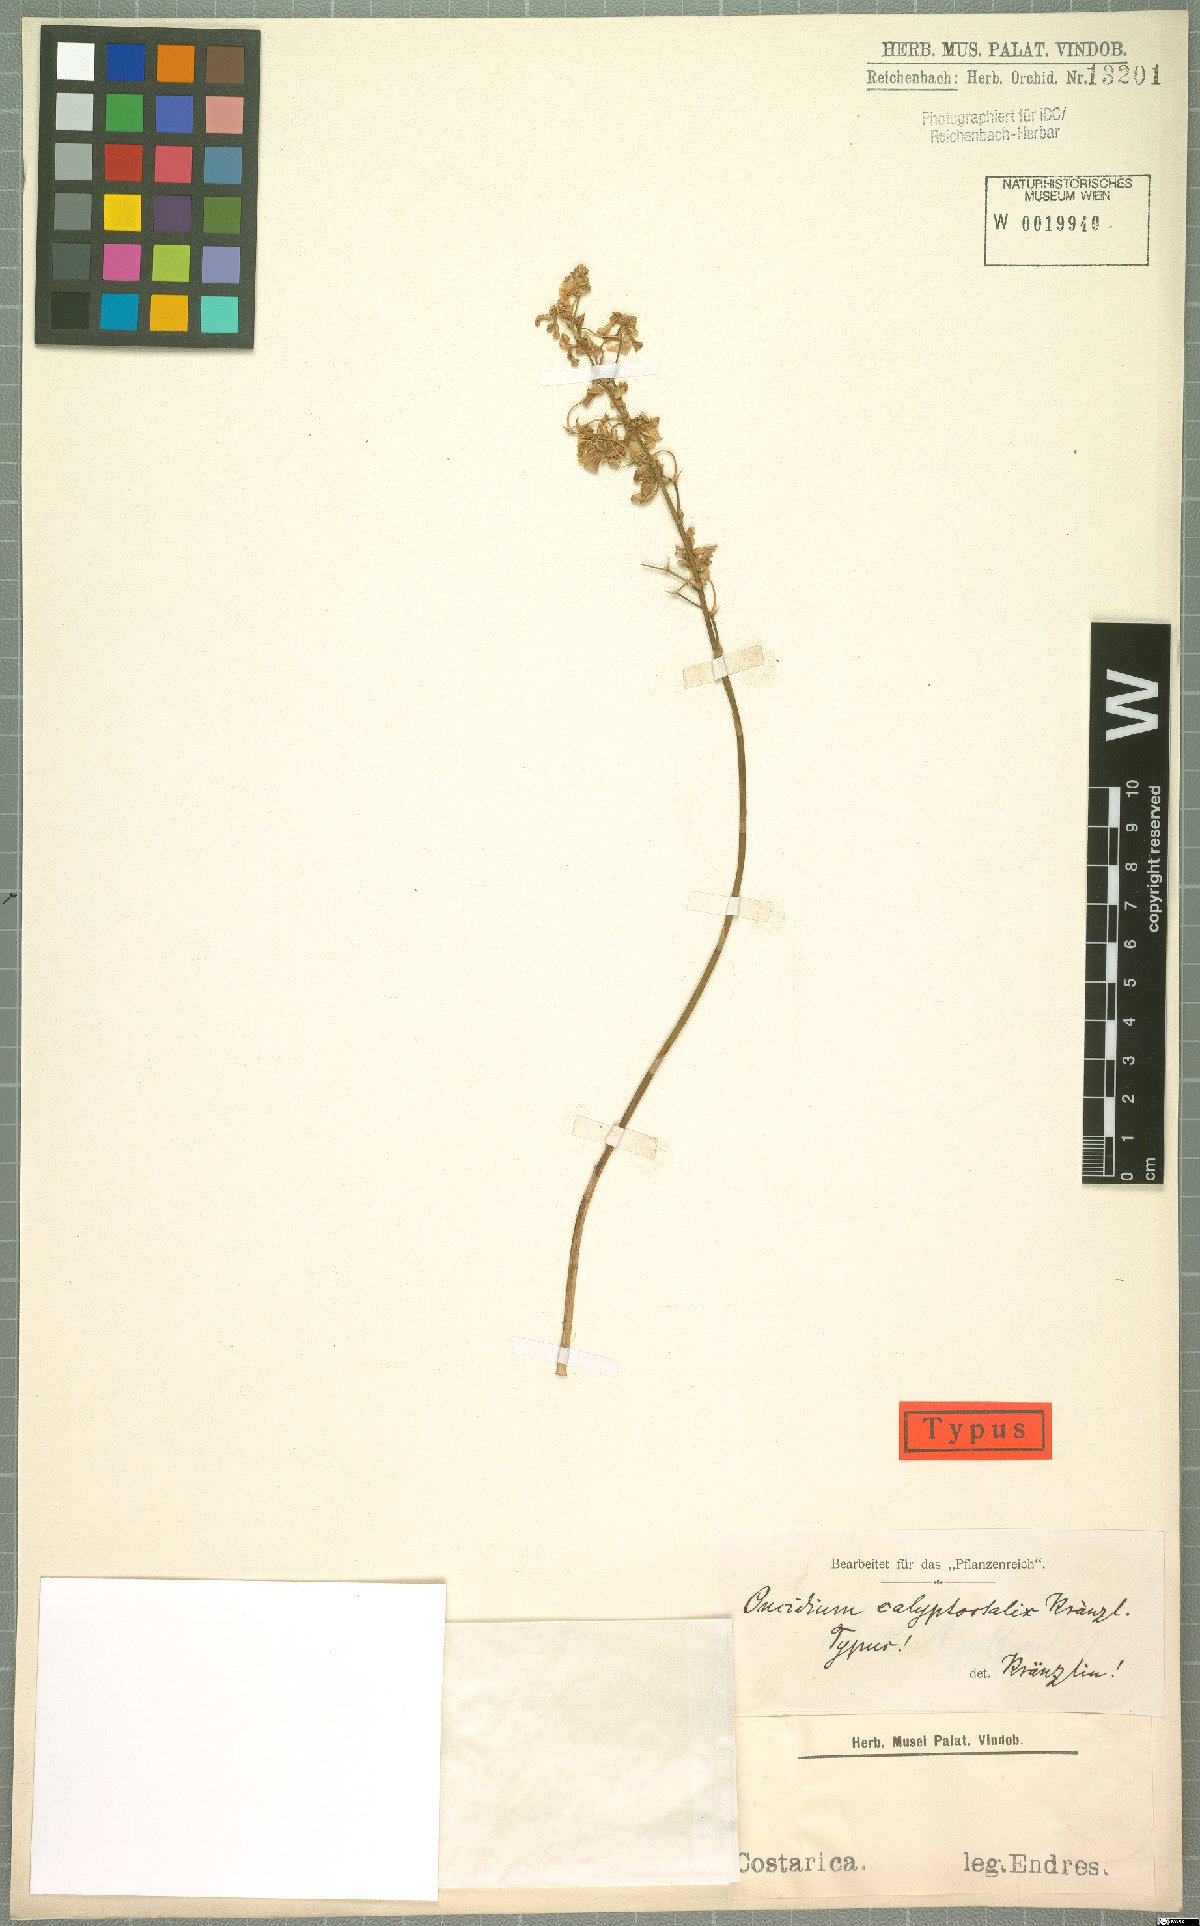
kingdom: Plantae
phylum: Tracheophyta
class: Liliopsida
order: Asparagales
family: Orchidaceae
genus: Oncidium
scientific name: Oncidium obryzatoides
